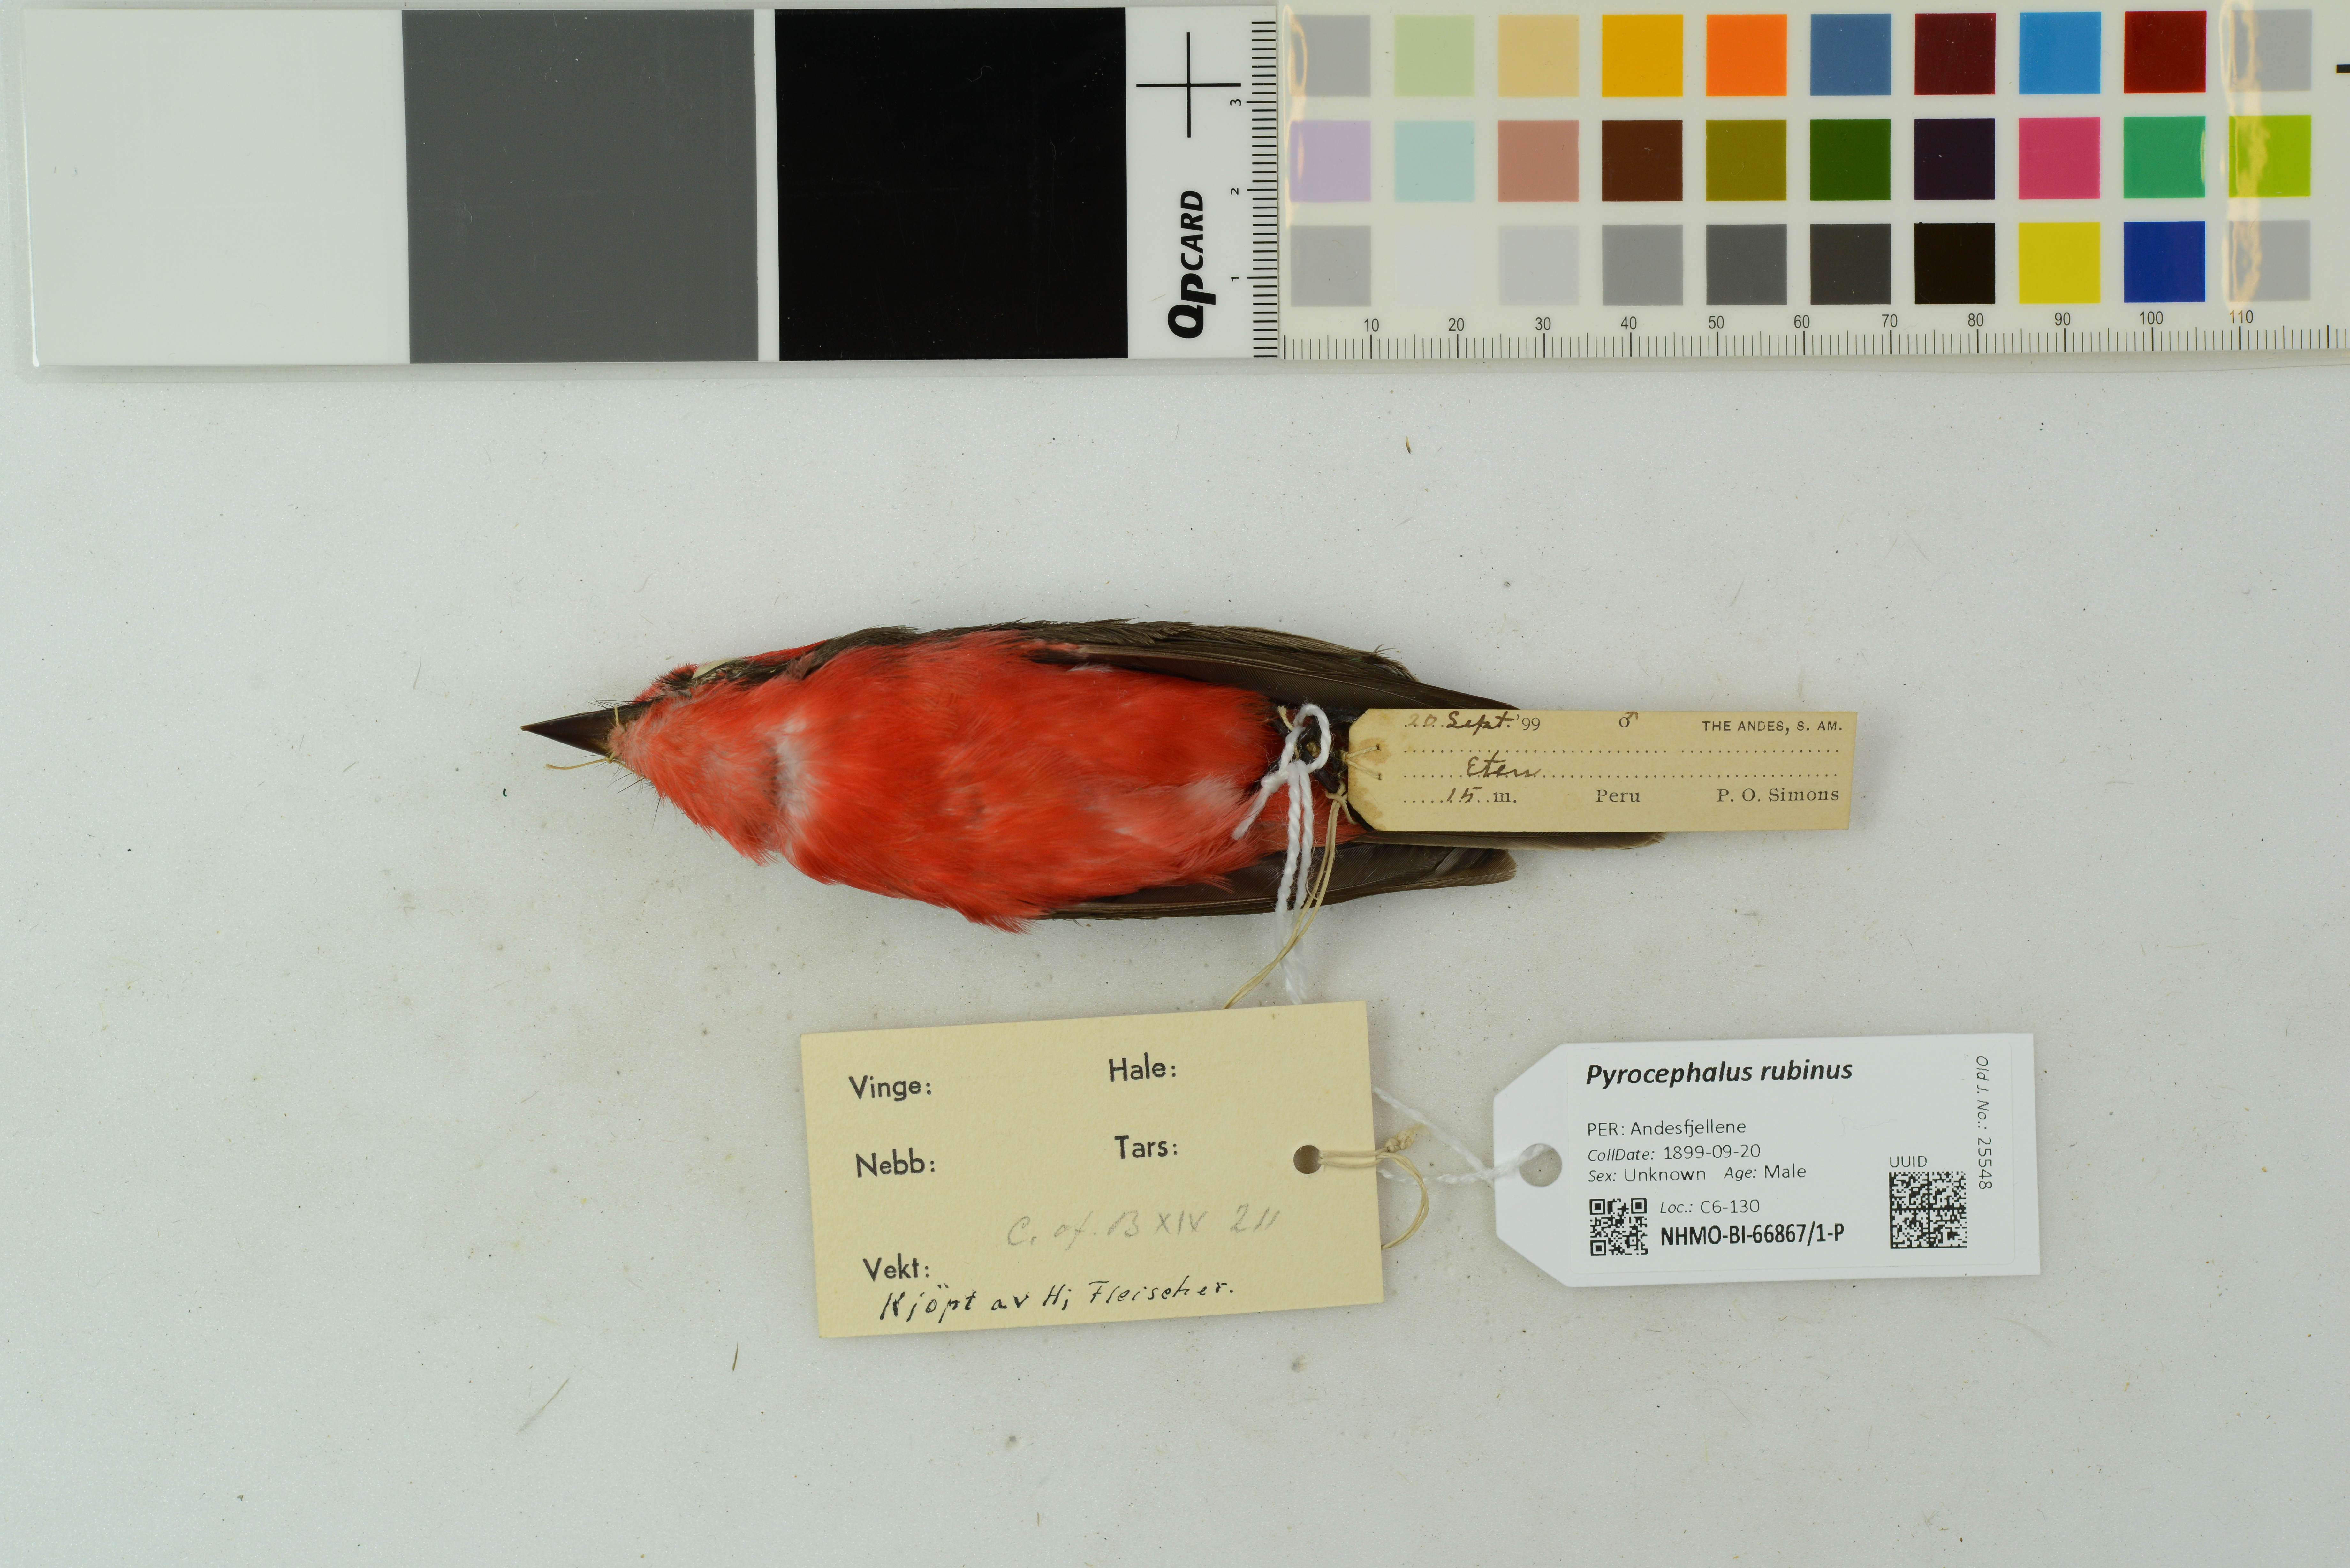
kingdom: Animalia
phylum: Chordata
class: Aves
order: Passeriformes
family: Tyrannidae
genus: Pyrocephalus
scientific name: Pyrocephalus obscurus
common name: Vermilion flycatcher
